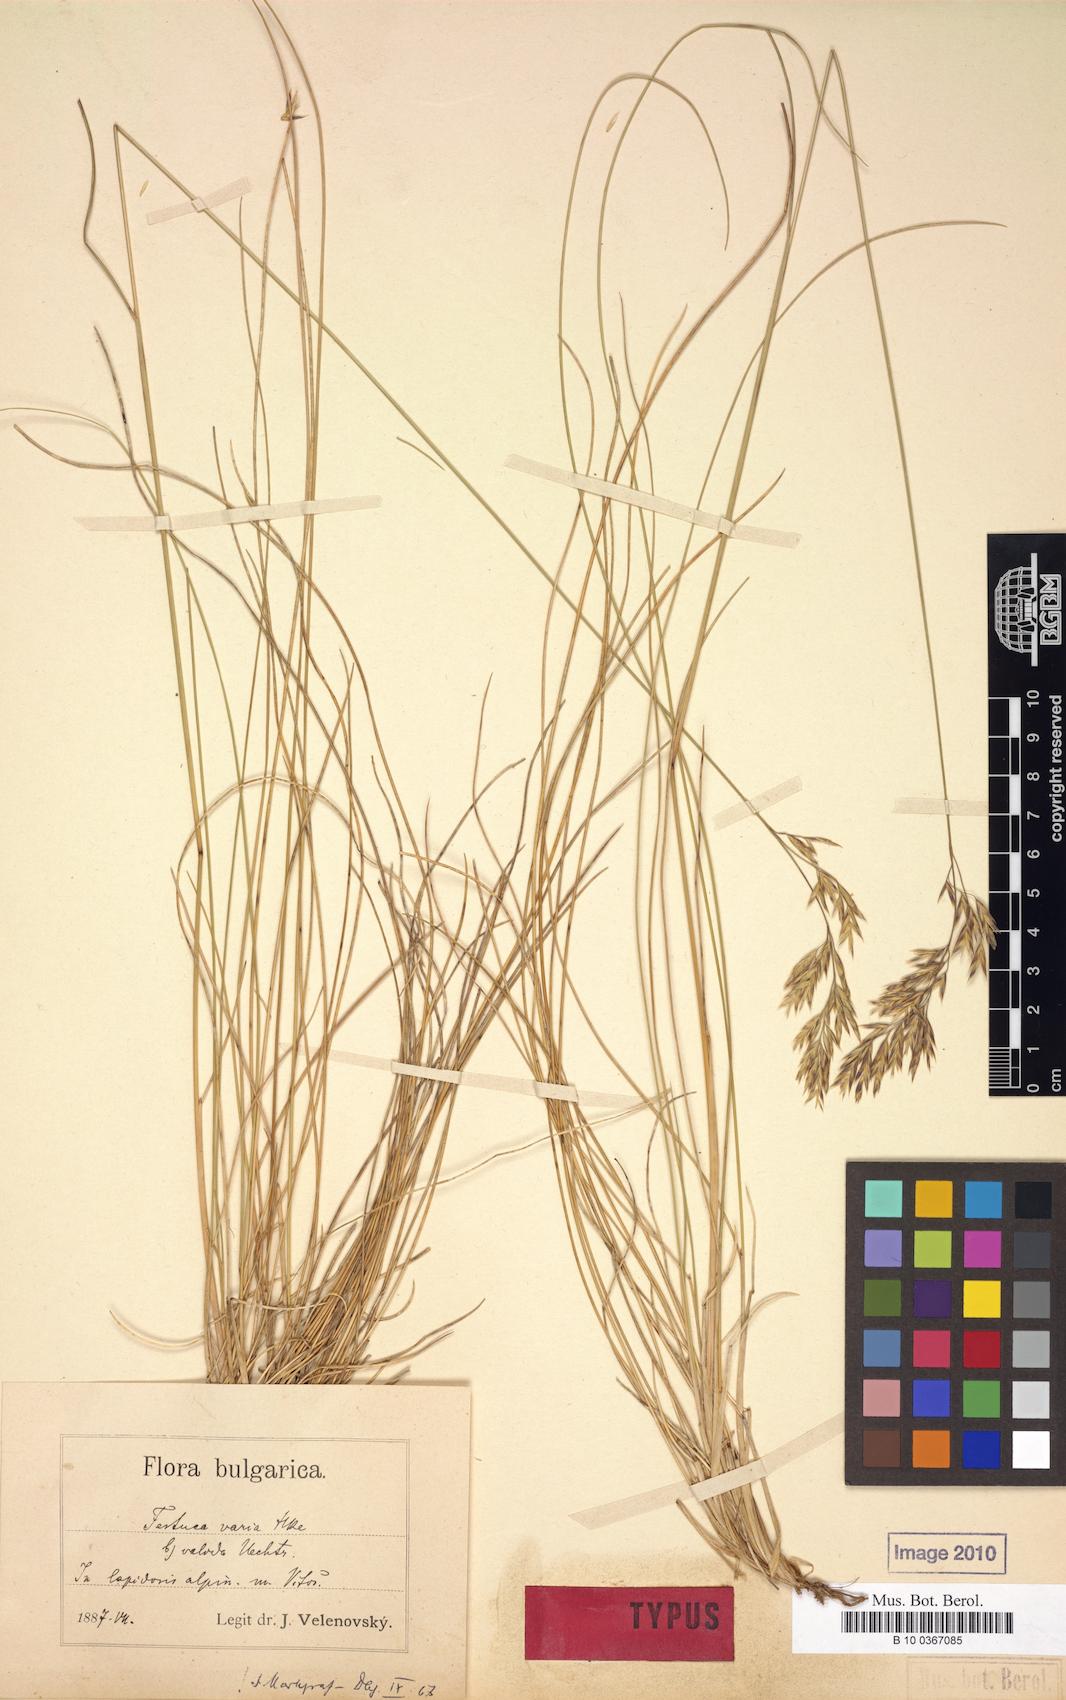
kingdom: Plantae
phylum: Tracheophyta
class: Liliopsida
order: Poales
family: Poaceae
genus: Festuca
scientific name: Festuca valida
